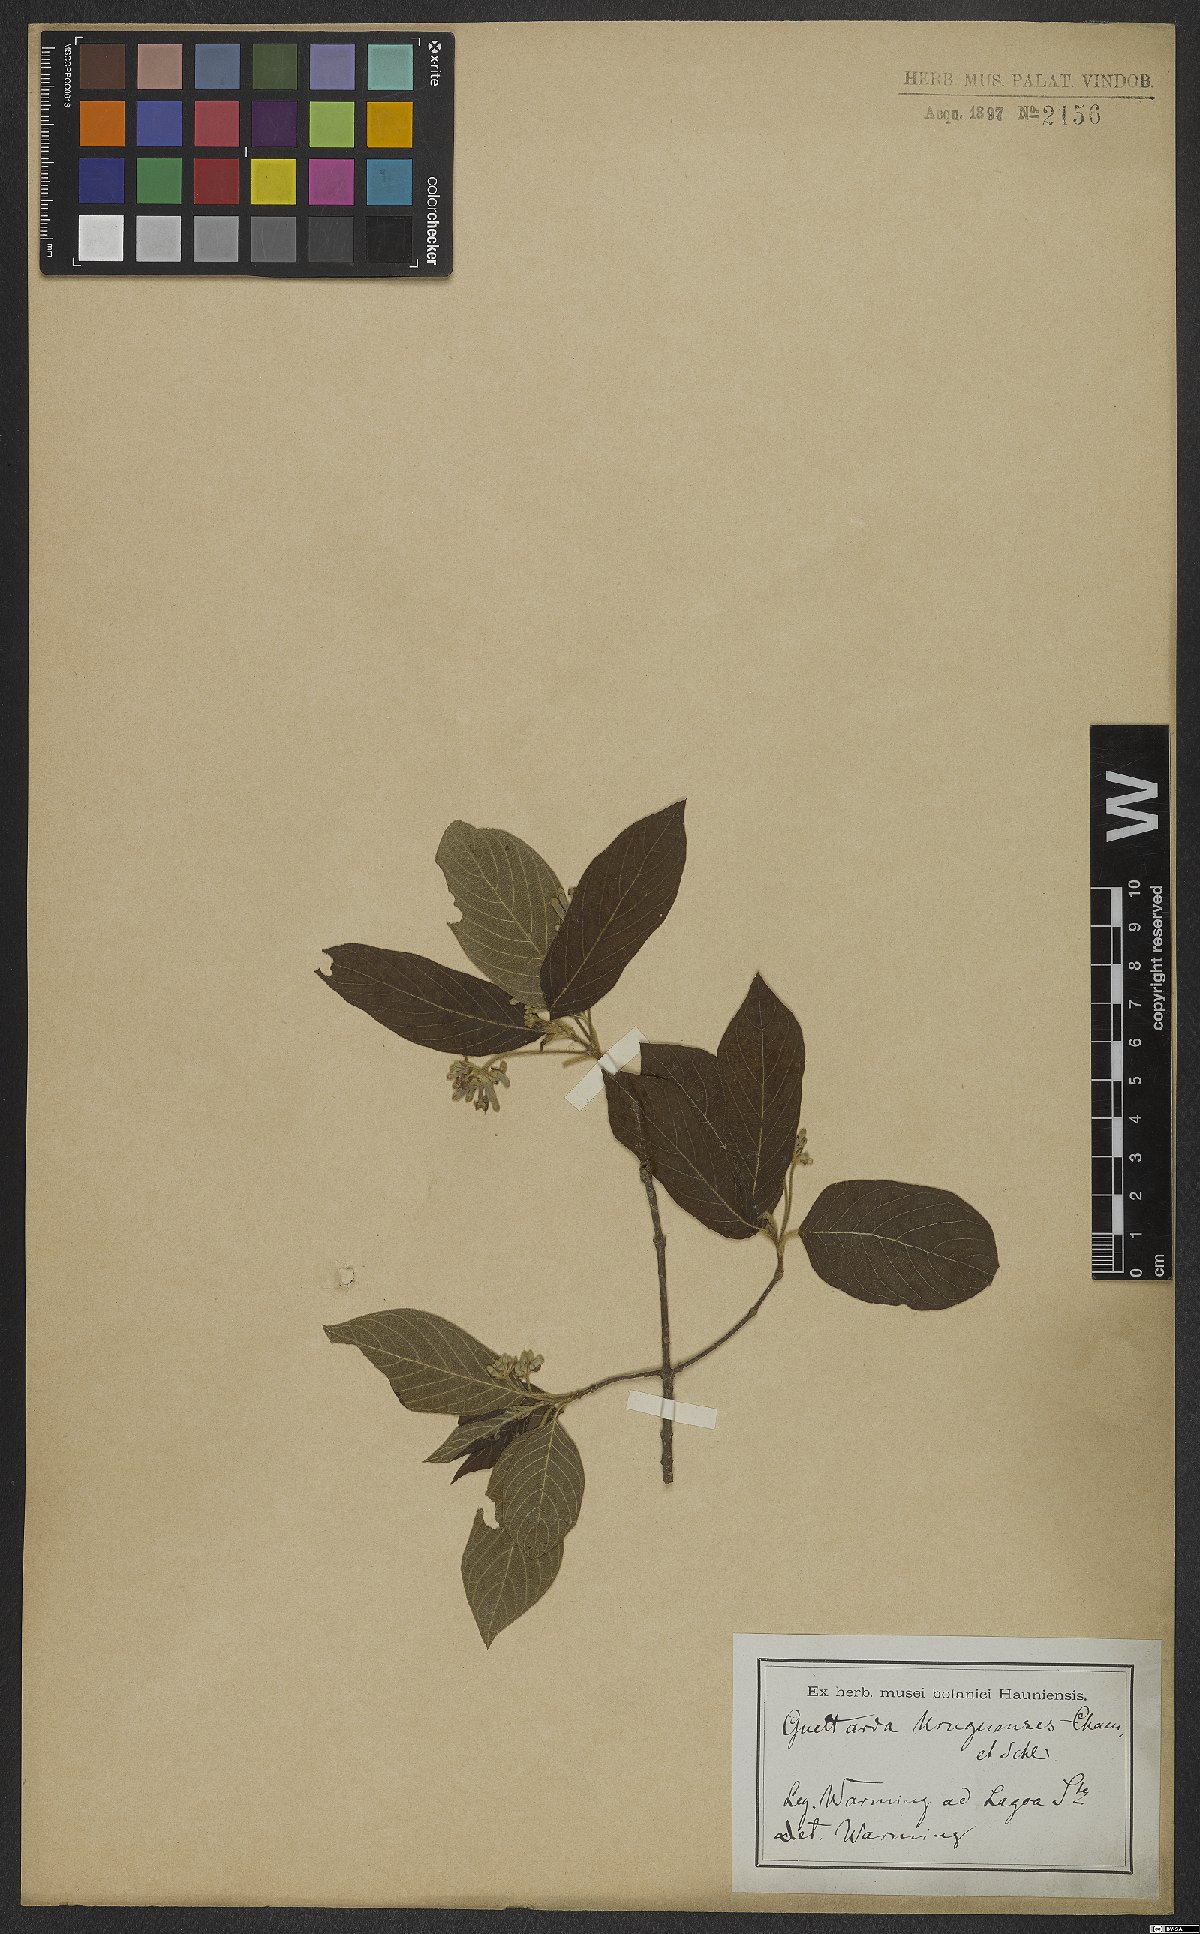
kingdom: Plantae
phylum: Tracheophyta
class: Magnoliopsida
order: Gentianales
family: Rubiaceae
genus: Guettarda
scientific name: Guettarda uruguensis
